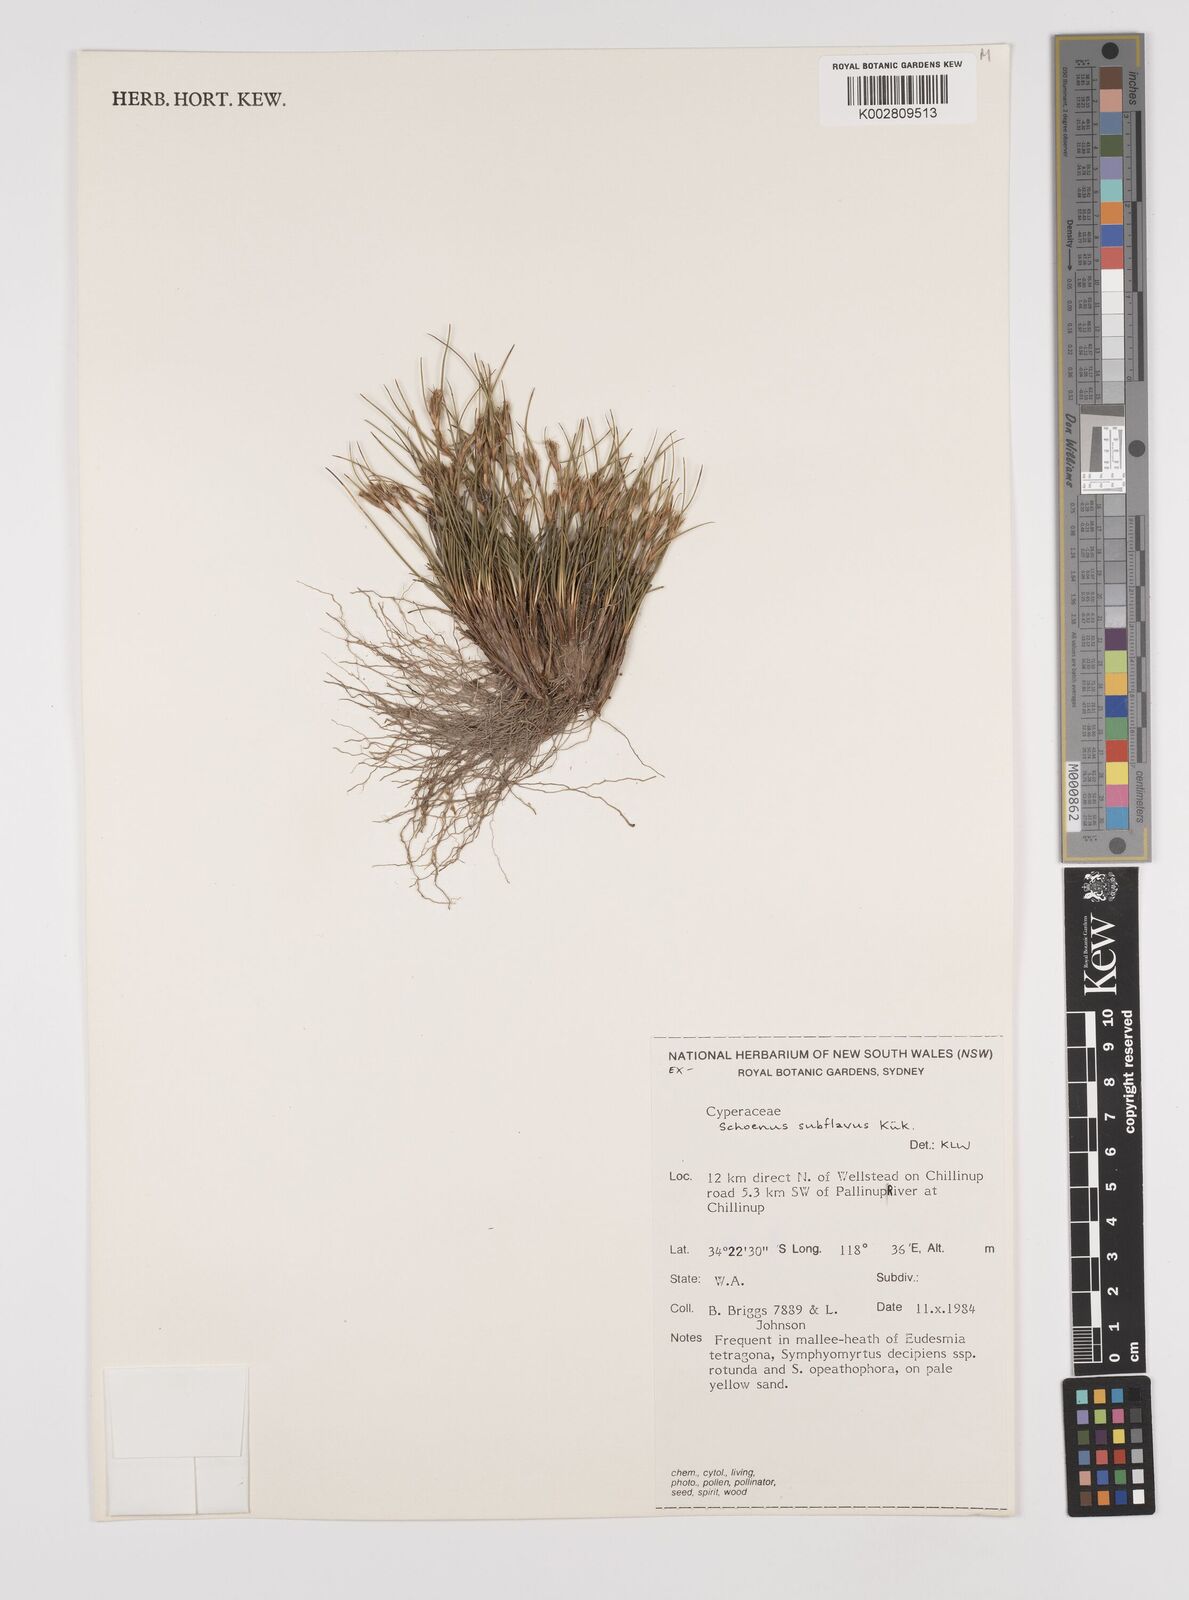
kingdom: Plantae
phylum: Tracheophyta
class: Liliopsida
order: Poales
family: Cyperaceae
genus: Schoenus
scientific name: Schoenus subflavus
